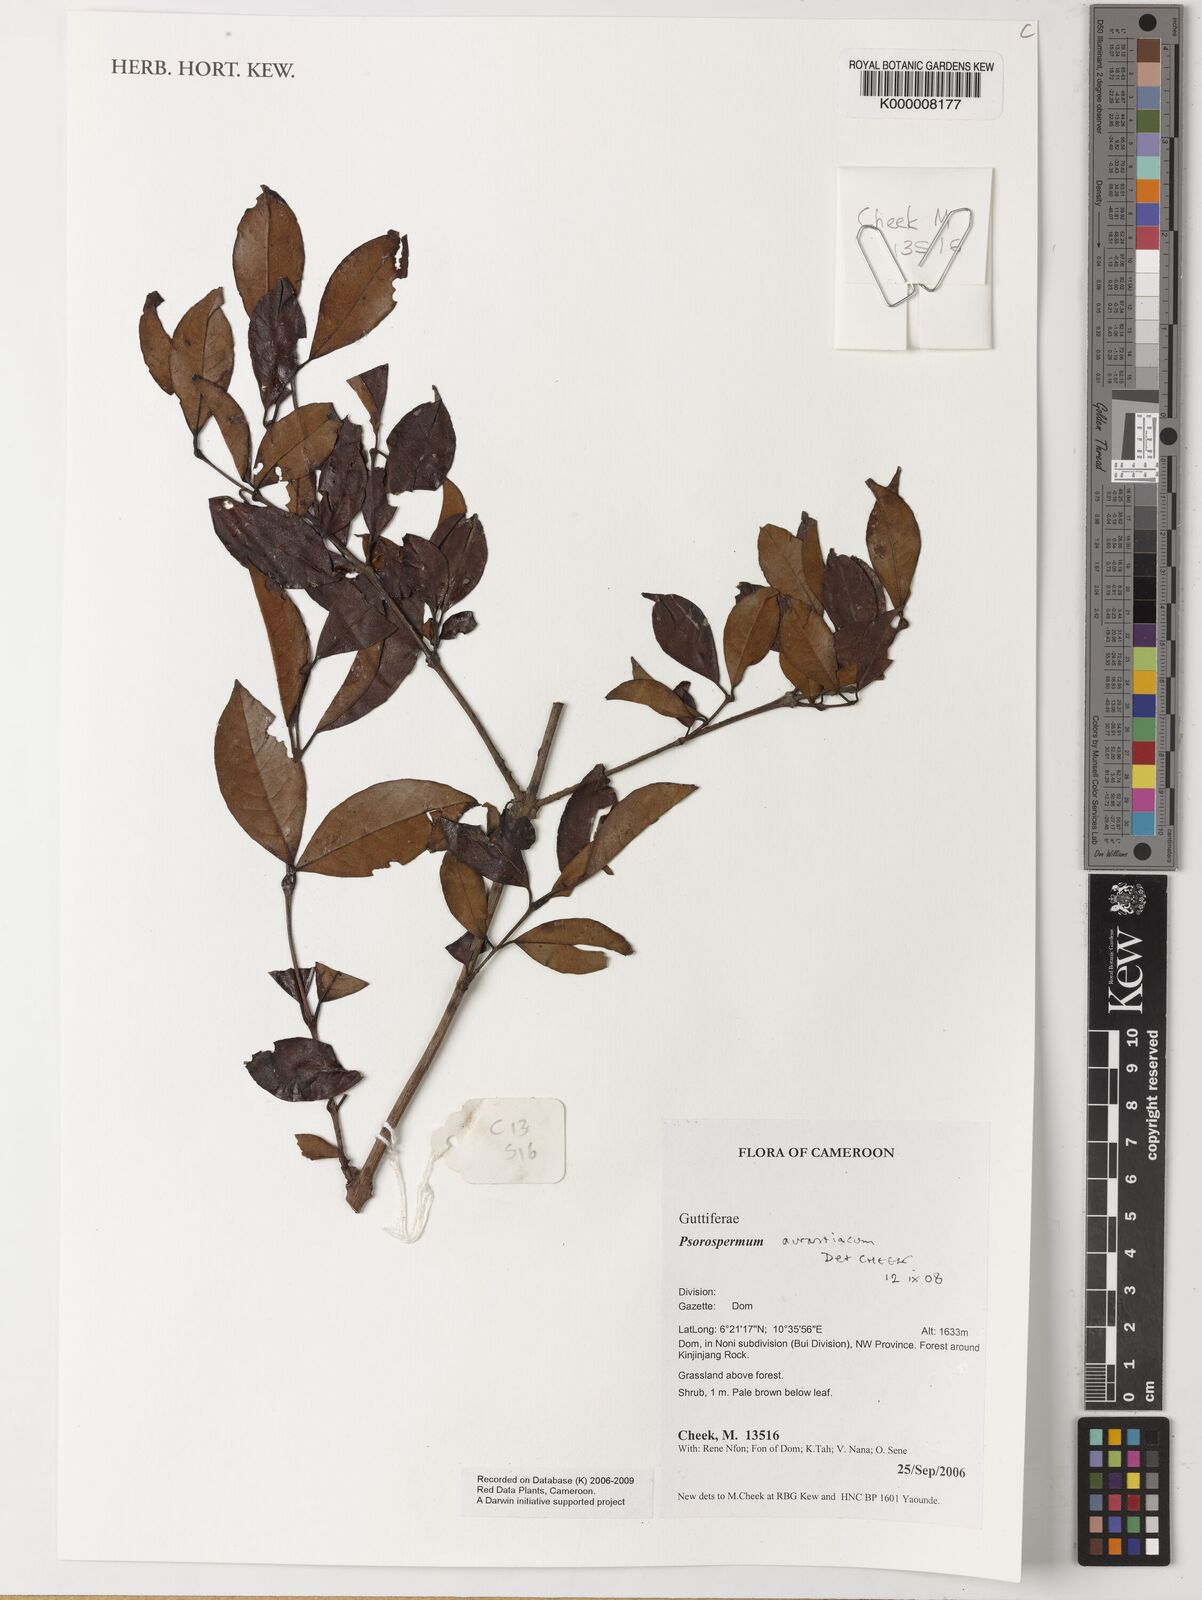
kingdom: Plantae
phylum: Tracheophyta
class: Magnoliopsida
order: Malpighiales
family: Hypericaceae
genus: Psorospermum
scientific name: Psorospermum aurantiacum
